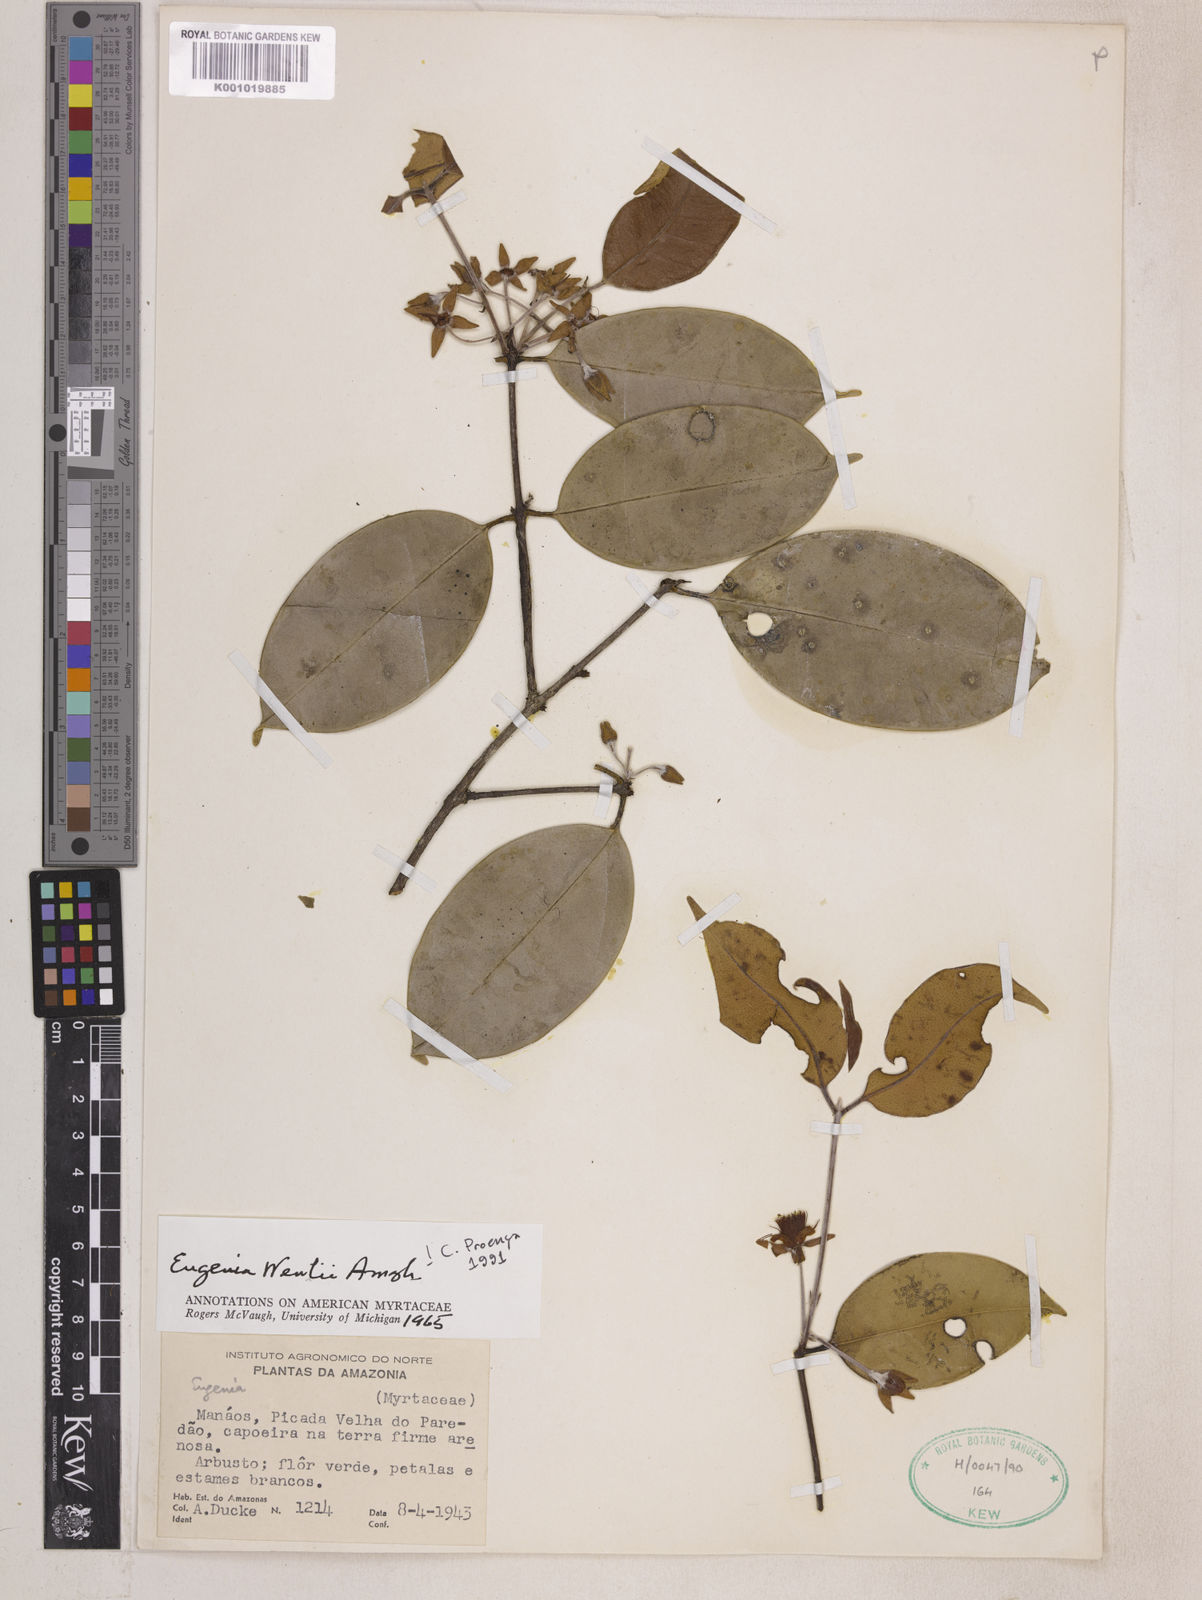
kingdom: Plantae
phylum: Tracheophyta
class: Magnoliopsida
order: Myrtales
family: Myrtaceae
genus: Eugenia
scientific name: Eugenia wentii
